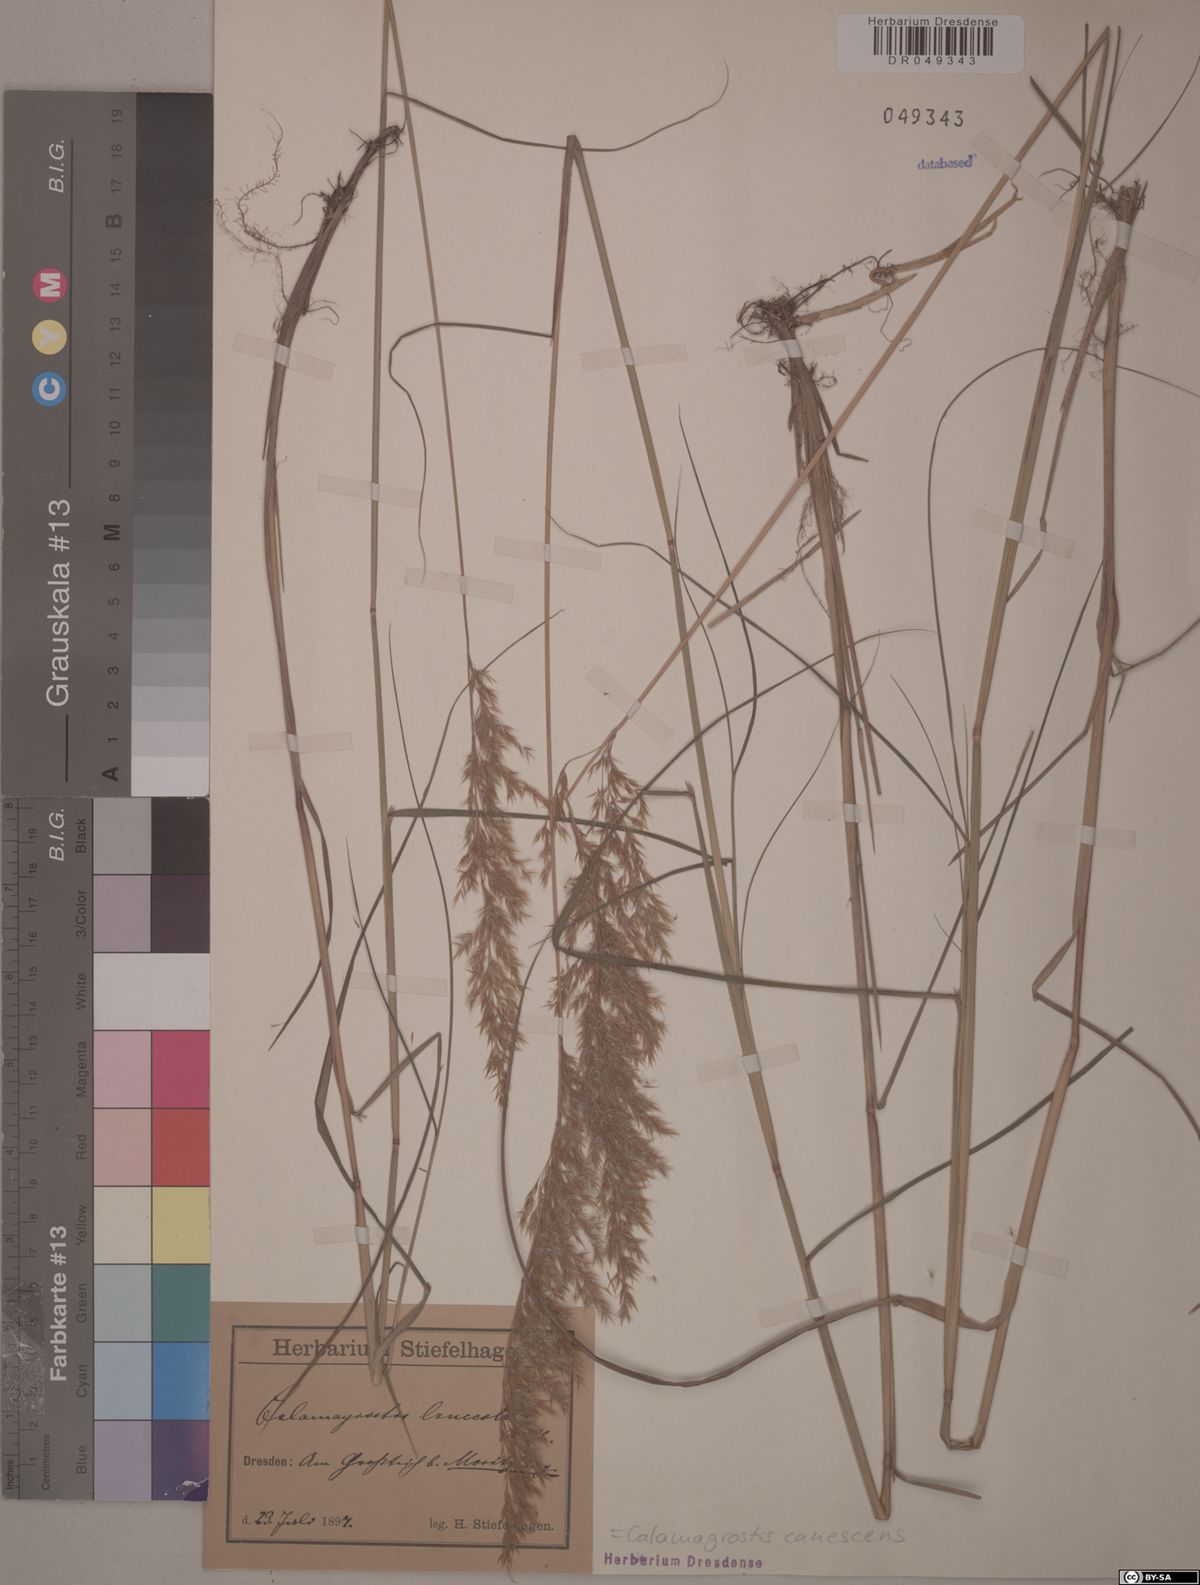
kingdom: Plantae
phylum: Tracheophyta
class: Liliopsida
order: Poales
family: Poaceae
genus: Calamagrostis
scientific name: Calamagrostis canescens
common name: Purple small-reed
